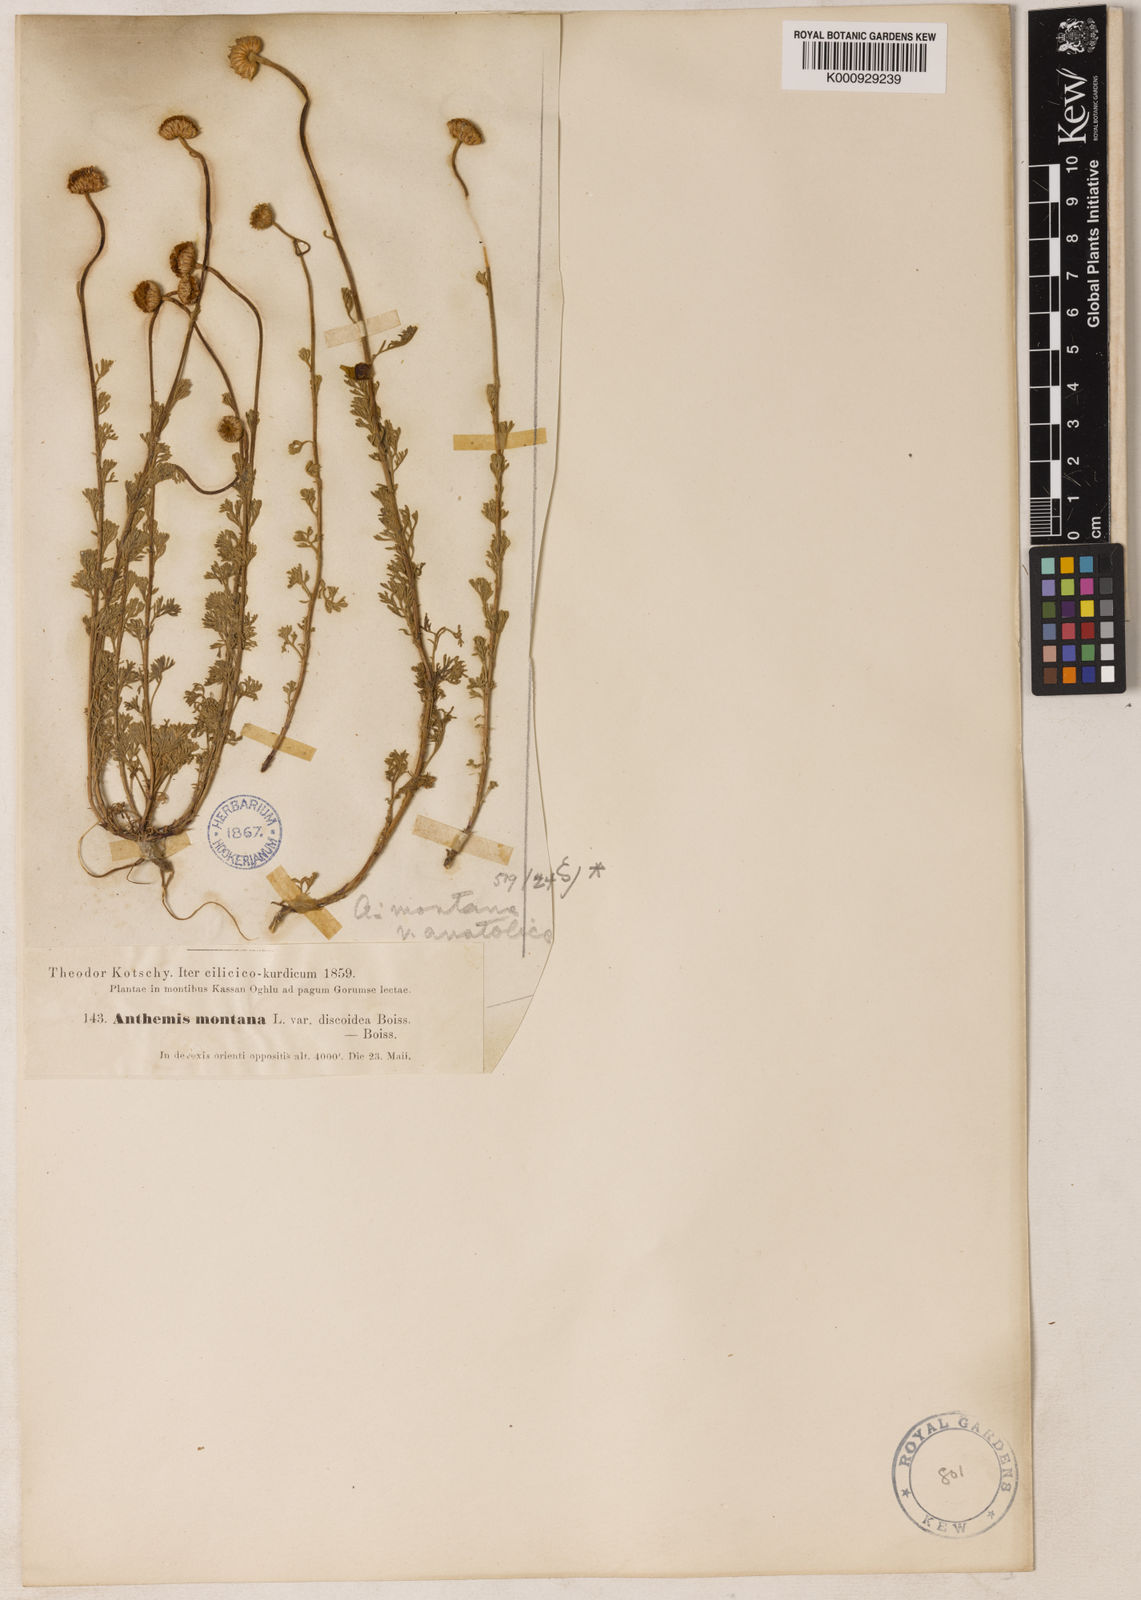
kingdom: Plantae
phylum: Tracheophyta
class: Magnoliopsida
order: Asterales
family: Asteraceae
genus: Anthemis
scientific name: Anthemis cretica
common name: Mountain dog-daisy
